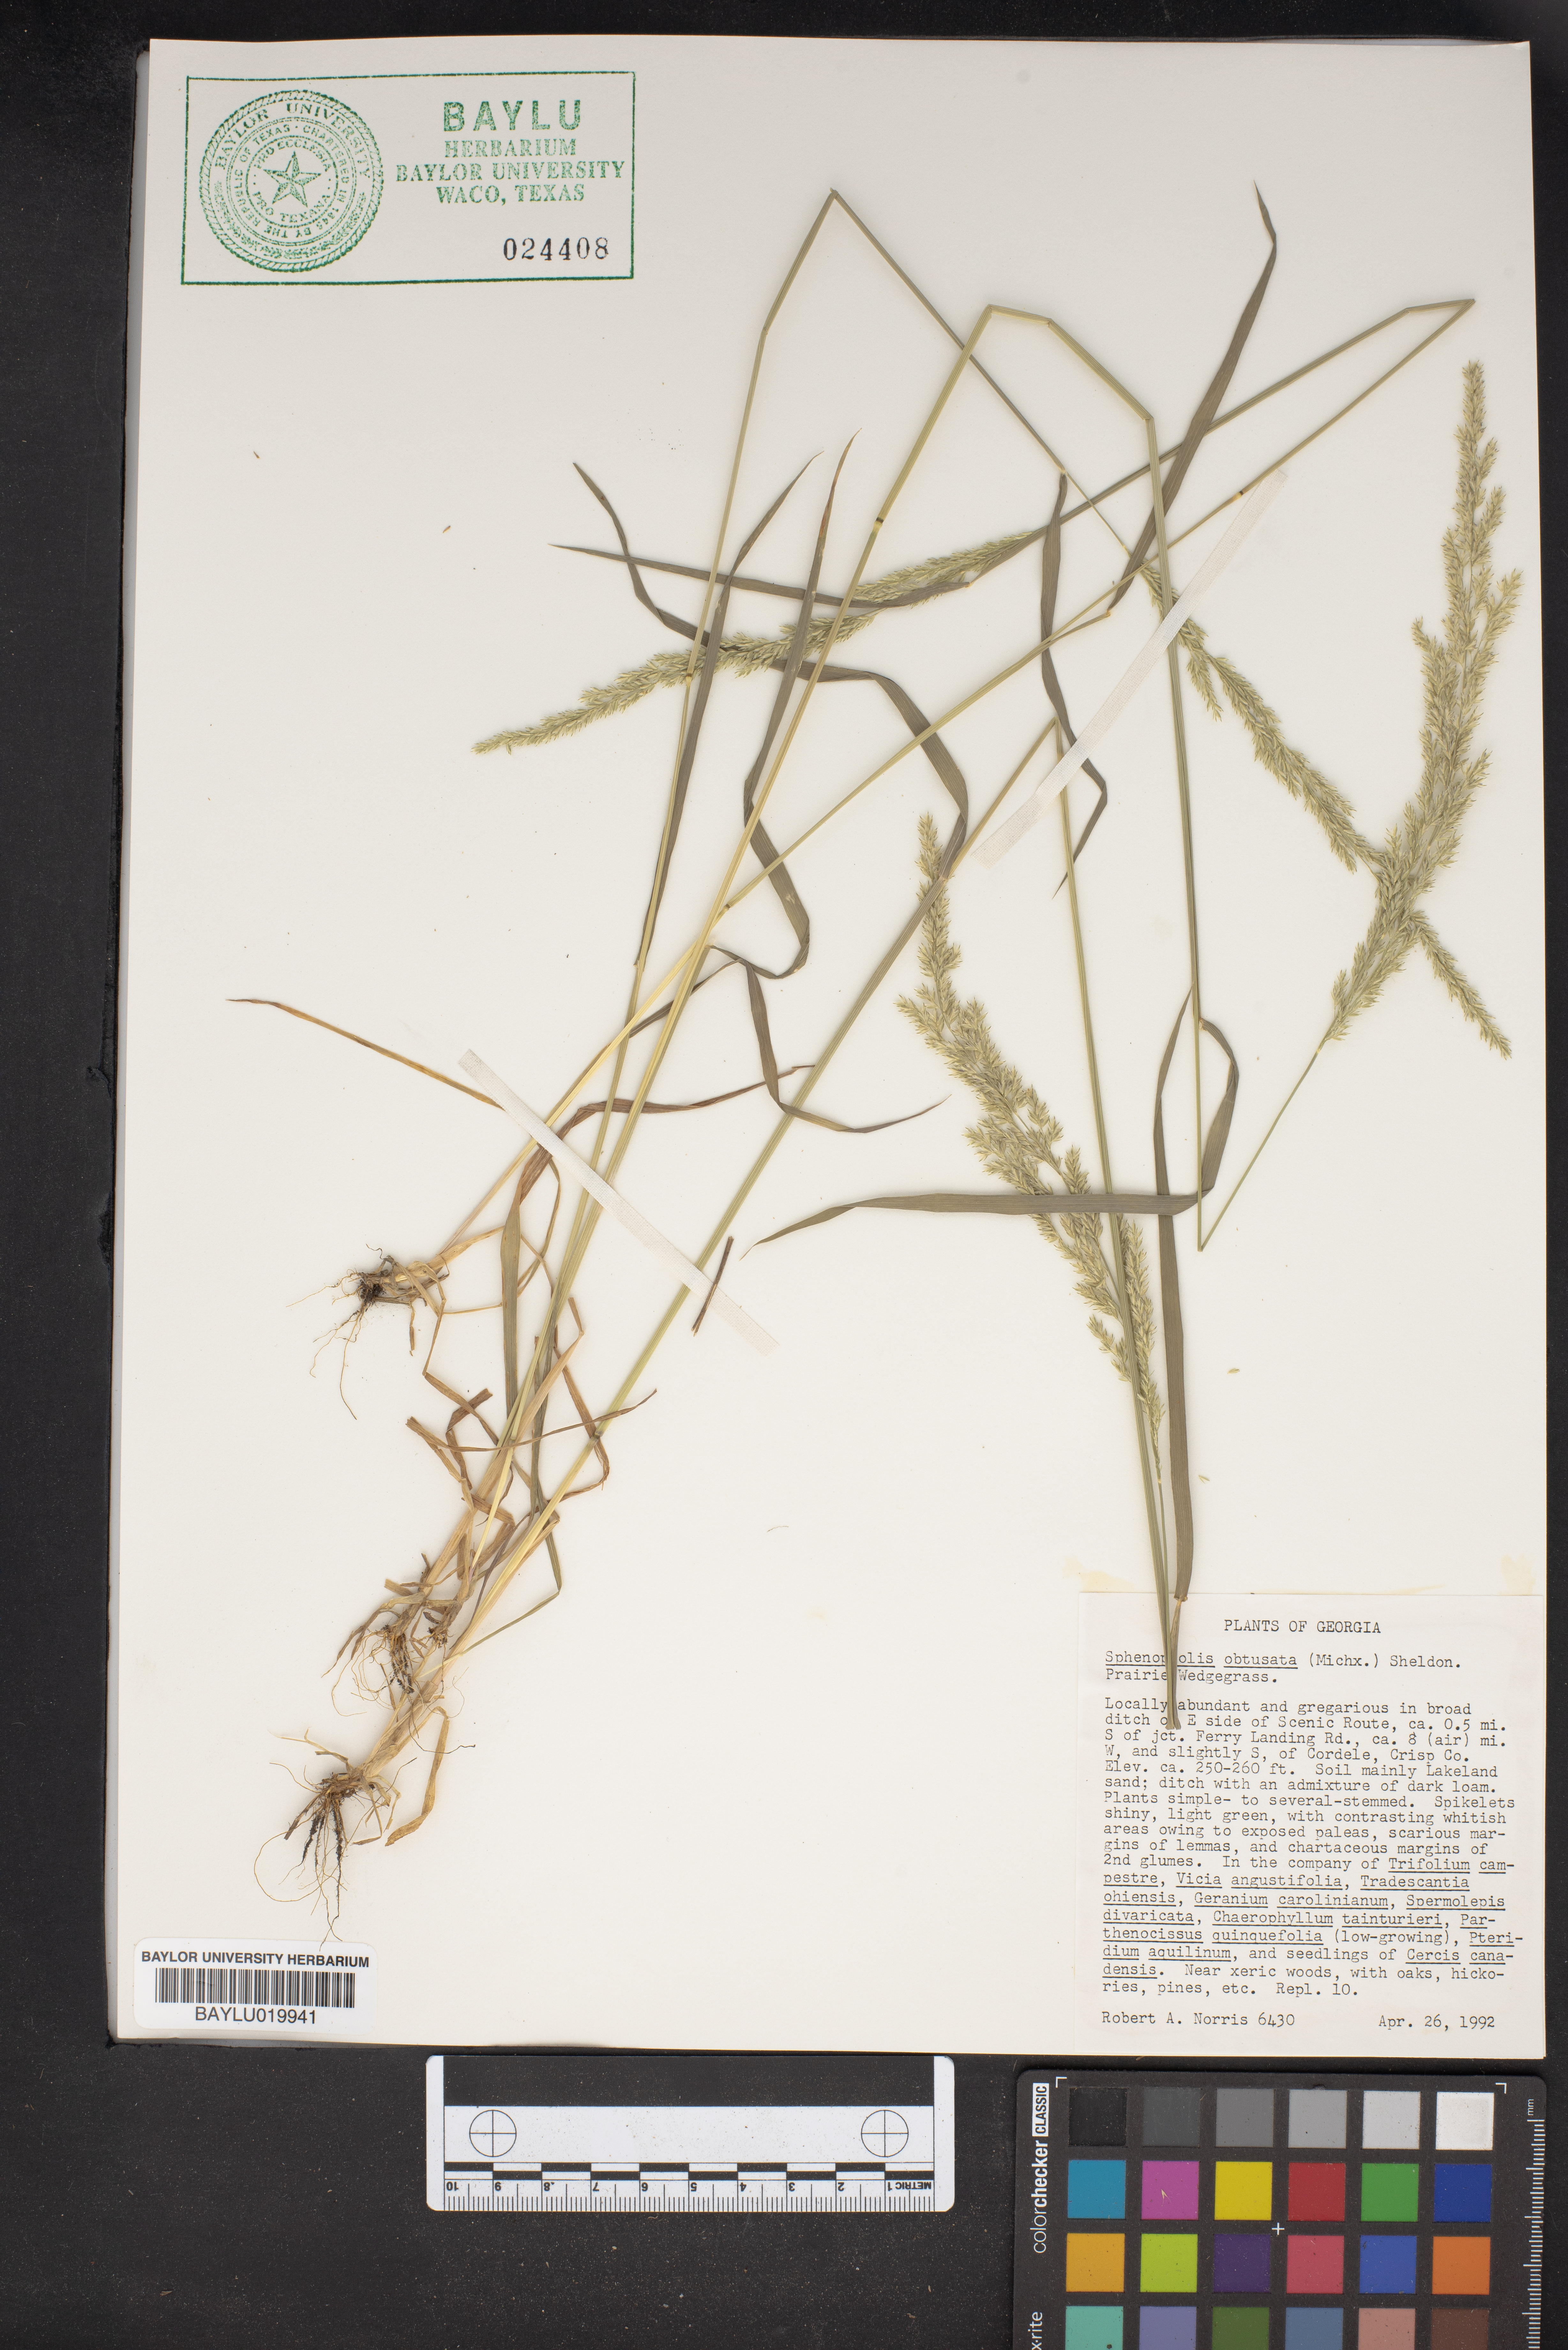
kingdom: Plantae
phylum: Tracheophyta
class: Liliopsida
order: Poales
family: Poaceae
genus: Sphenopholis
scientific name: Sphenopholis obtusata
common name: Prairie grass
